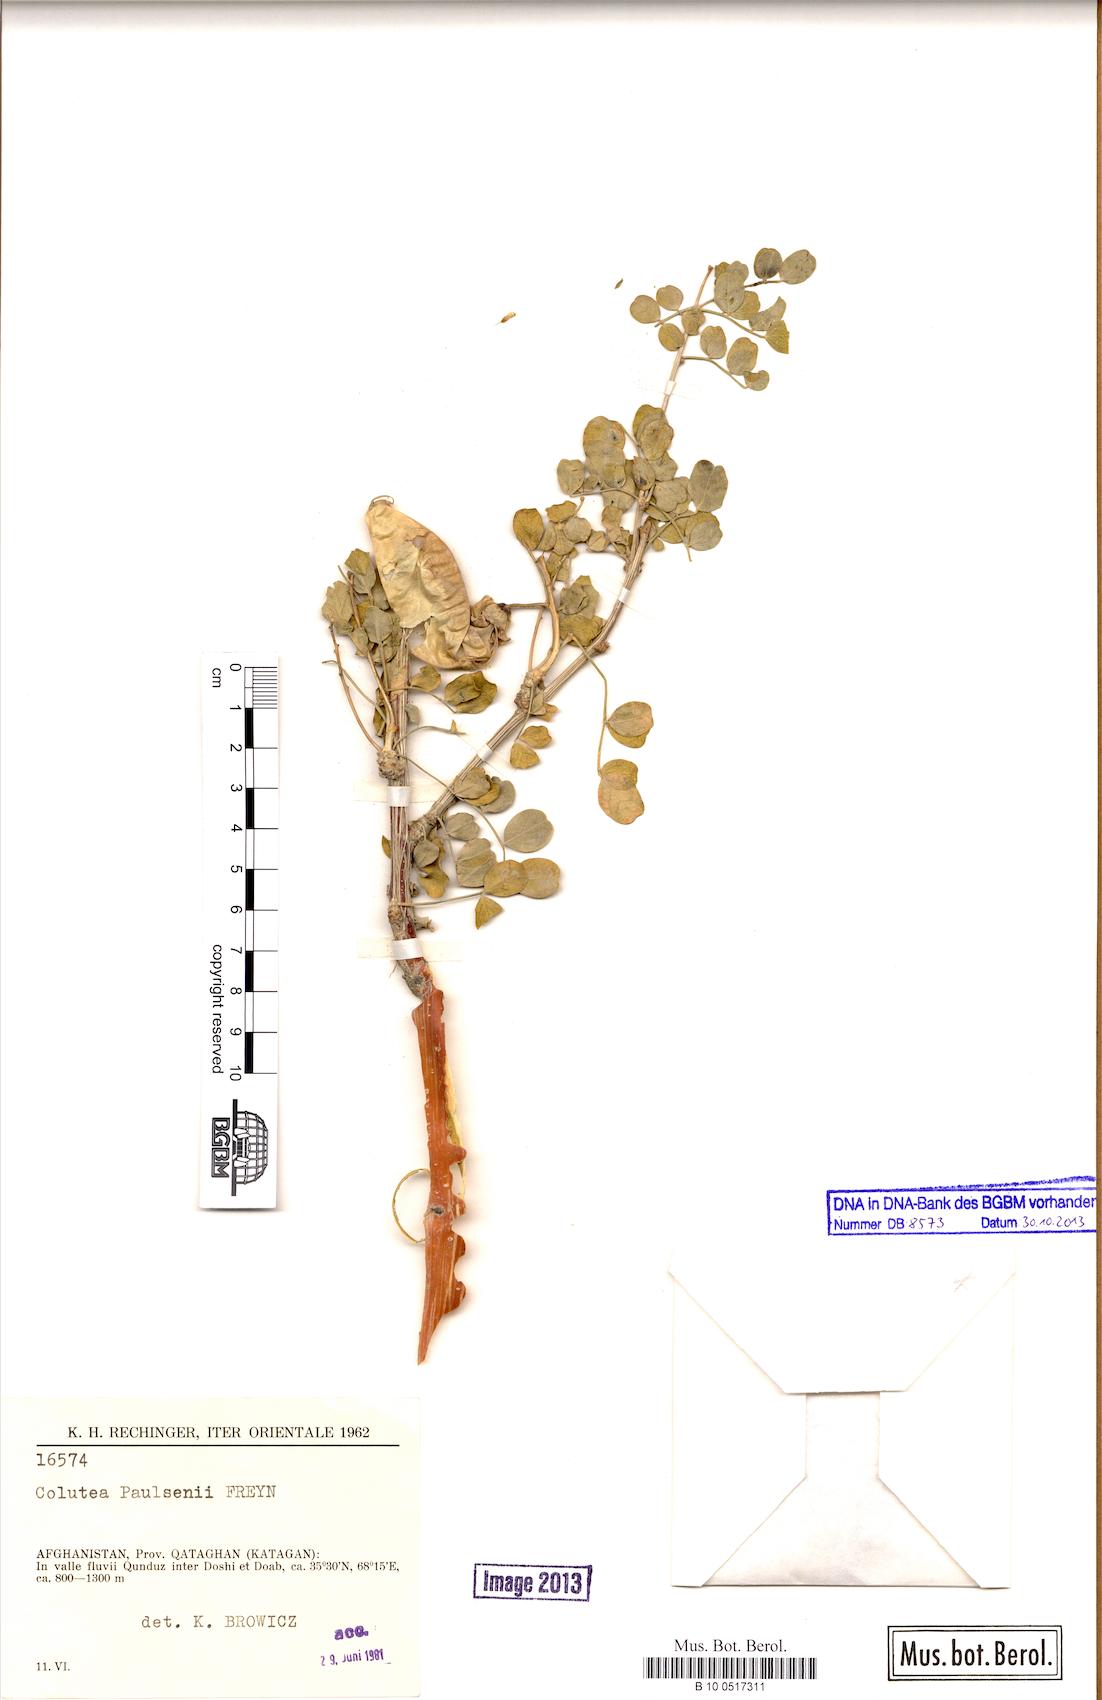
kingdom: Plantae
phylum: Tracheophyta
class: Magnoliopsida
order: Fabales
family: Fabaceae
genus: Colutea
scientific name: Colutea paulsenii
